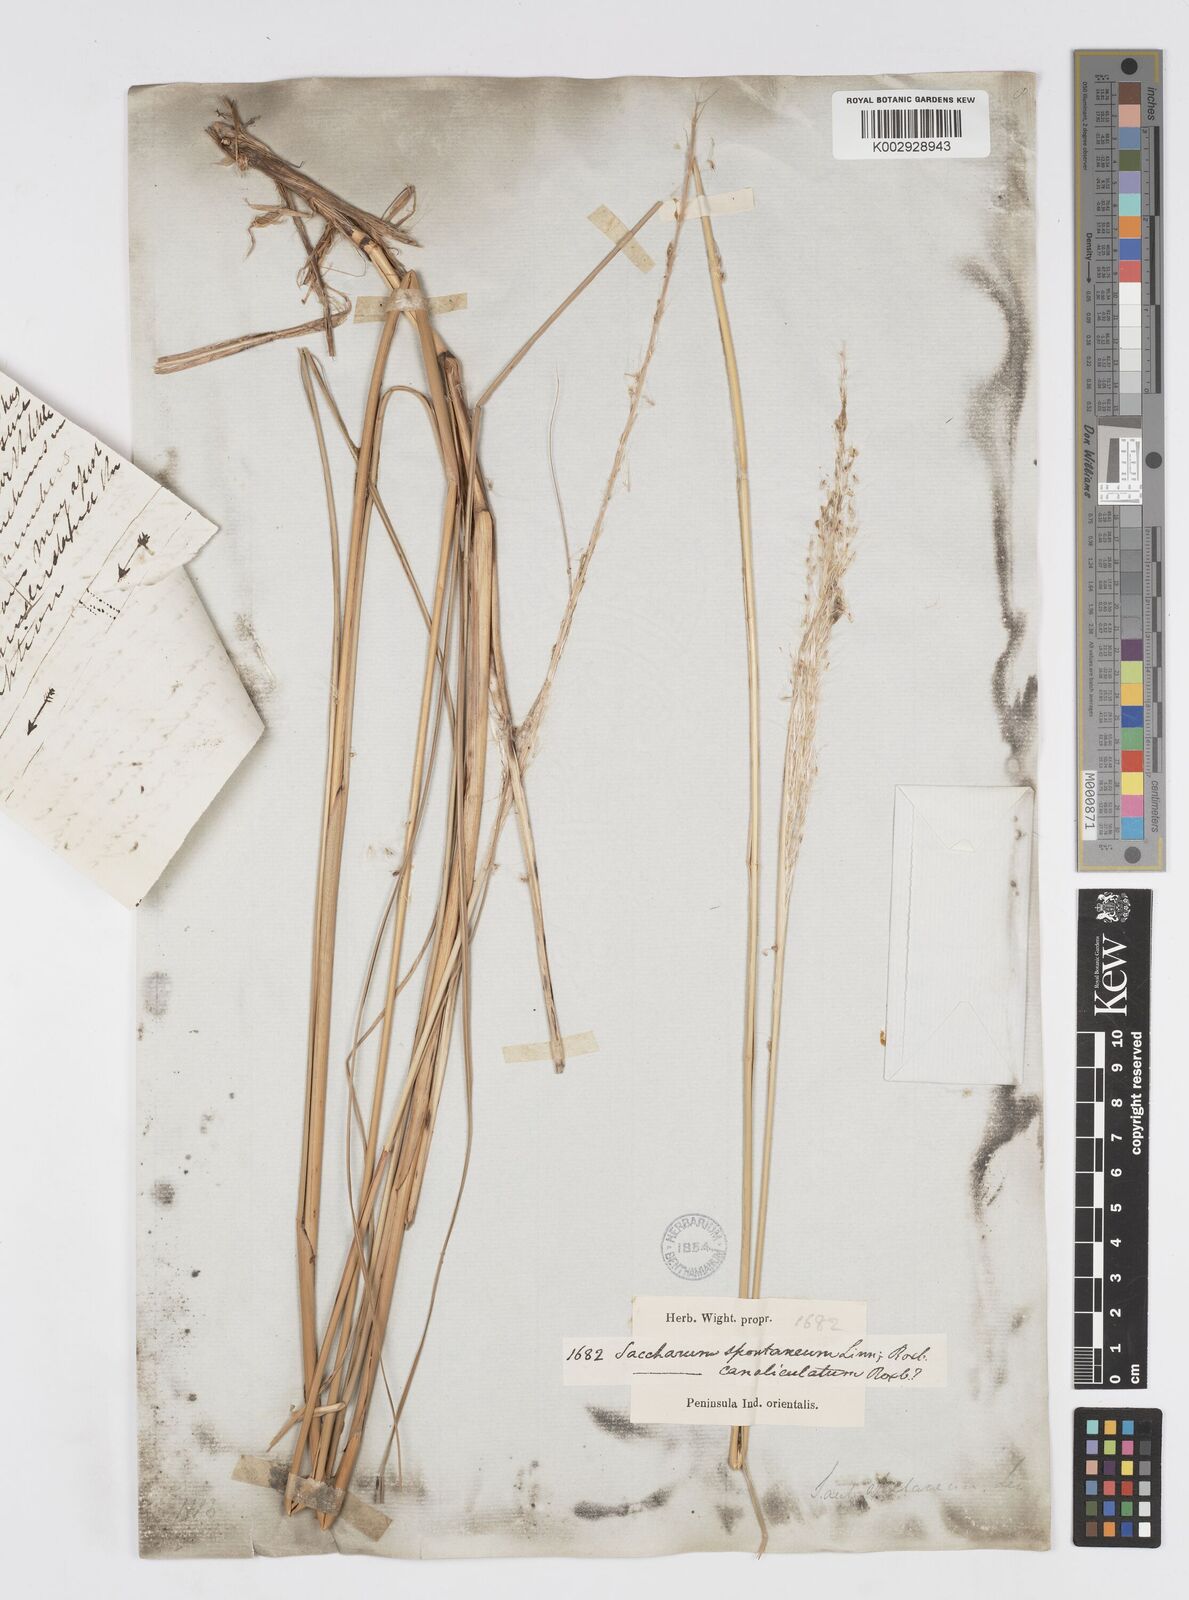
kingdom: Plantae
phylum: Tracheophyta
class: Liliopsida
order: Poales
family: Poaceae
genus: Saccharum
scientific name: Saccharum spontaneum
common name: Wild sugarcane
